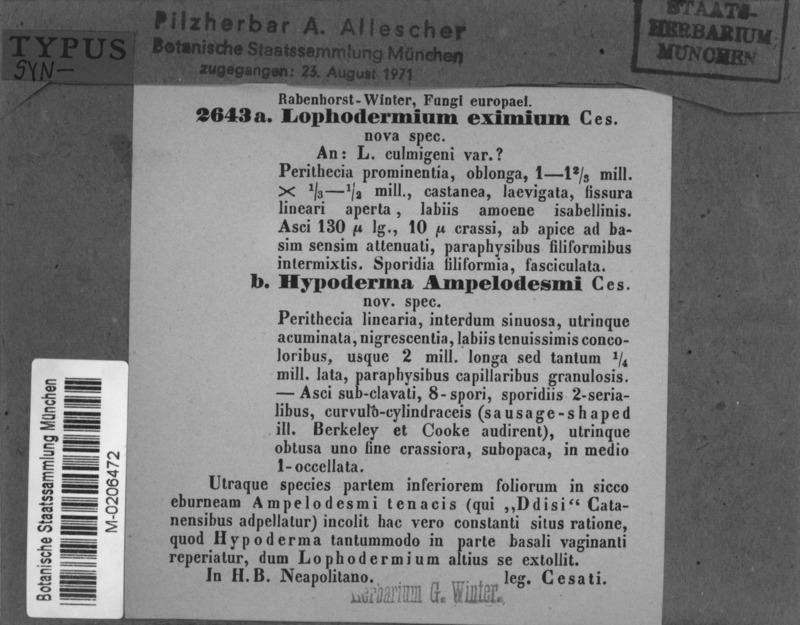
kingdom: Fungi
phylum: Ascomycota
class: Leotiomycetes
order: Rhytismatales
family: Rhytismataceae
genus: Lophodermium
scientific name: Lophodermium eximium
